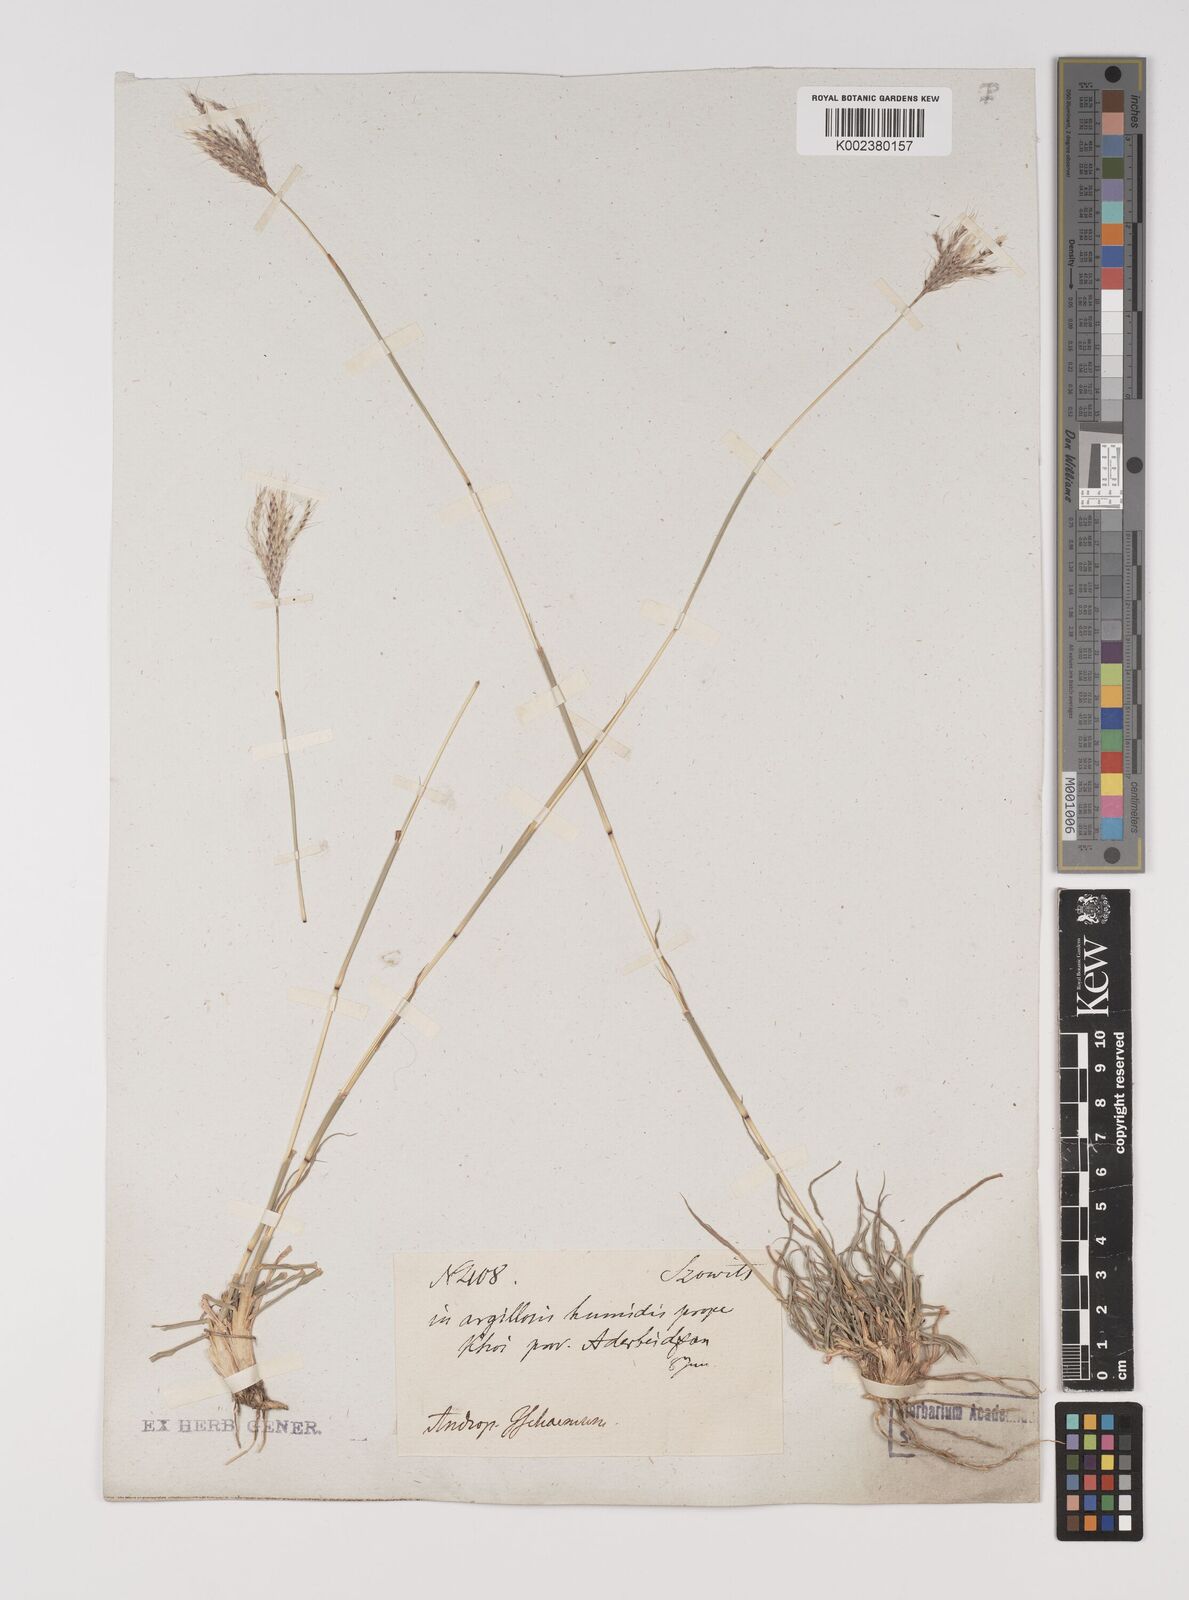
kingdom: Plantae
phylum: Tracheophyta
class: Liliopsida
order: Poales
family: Poaceae
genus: Bothriochloa
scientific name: Bothriochloa ischaemum
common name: Yellow bluestem
